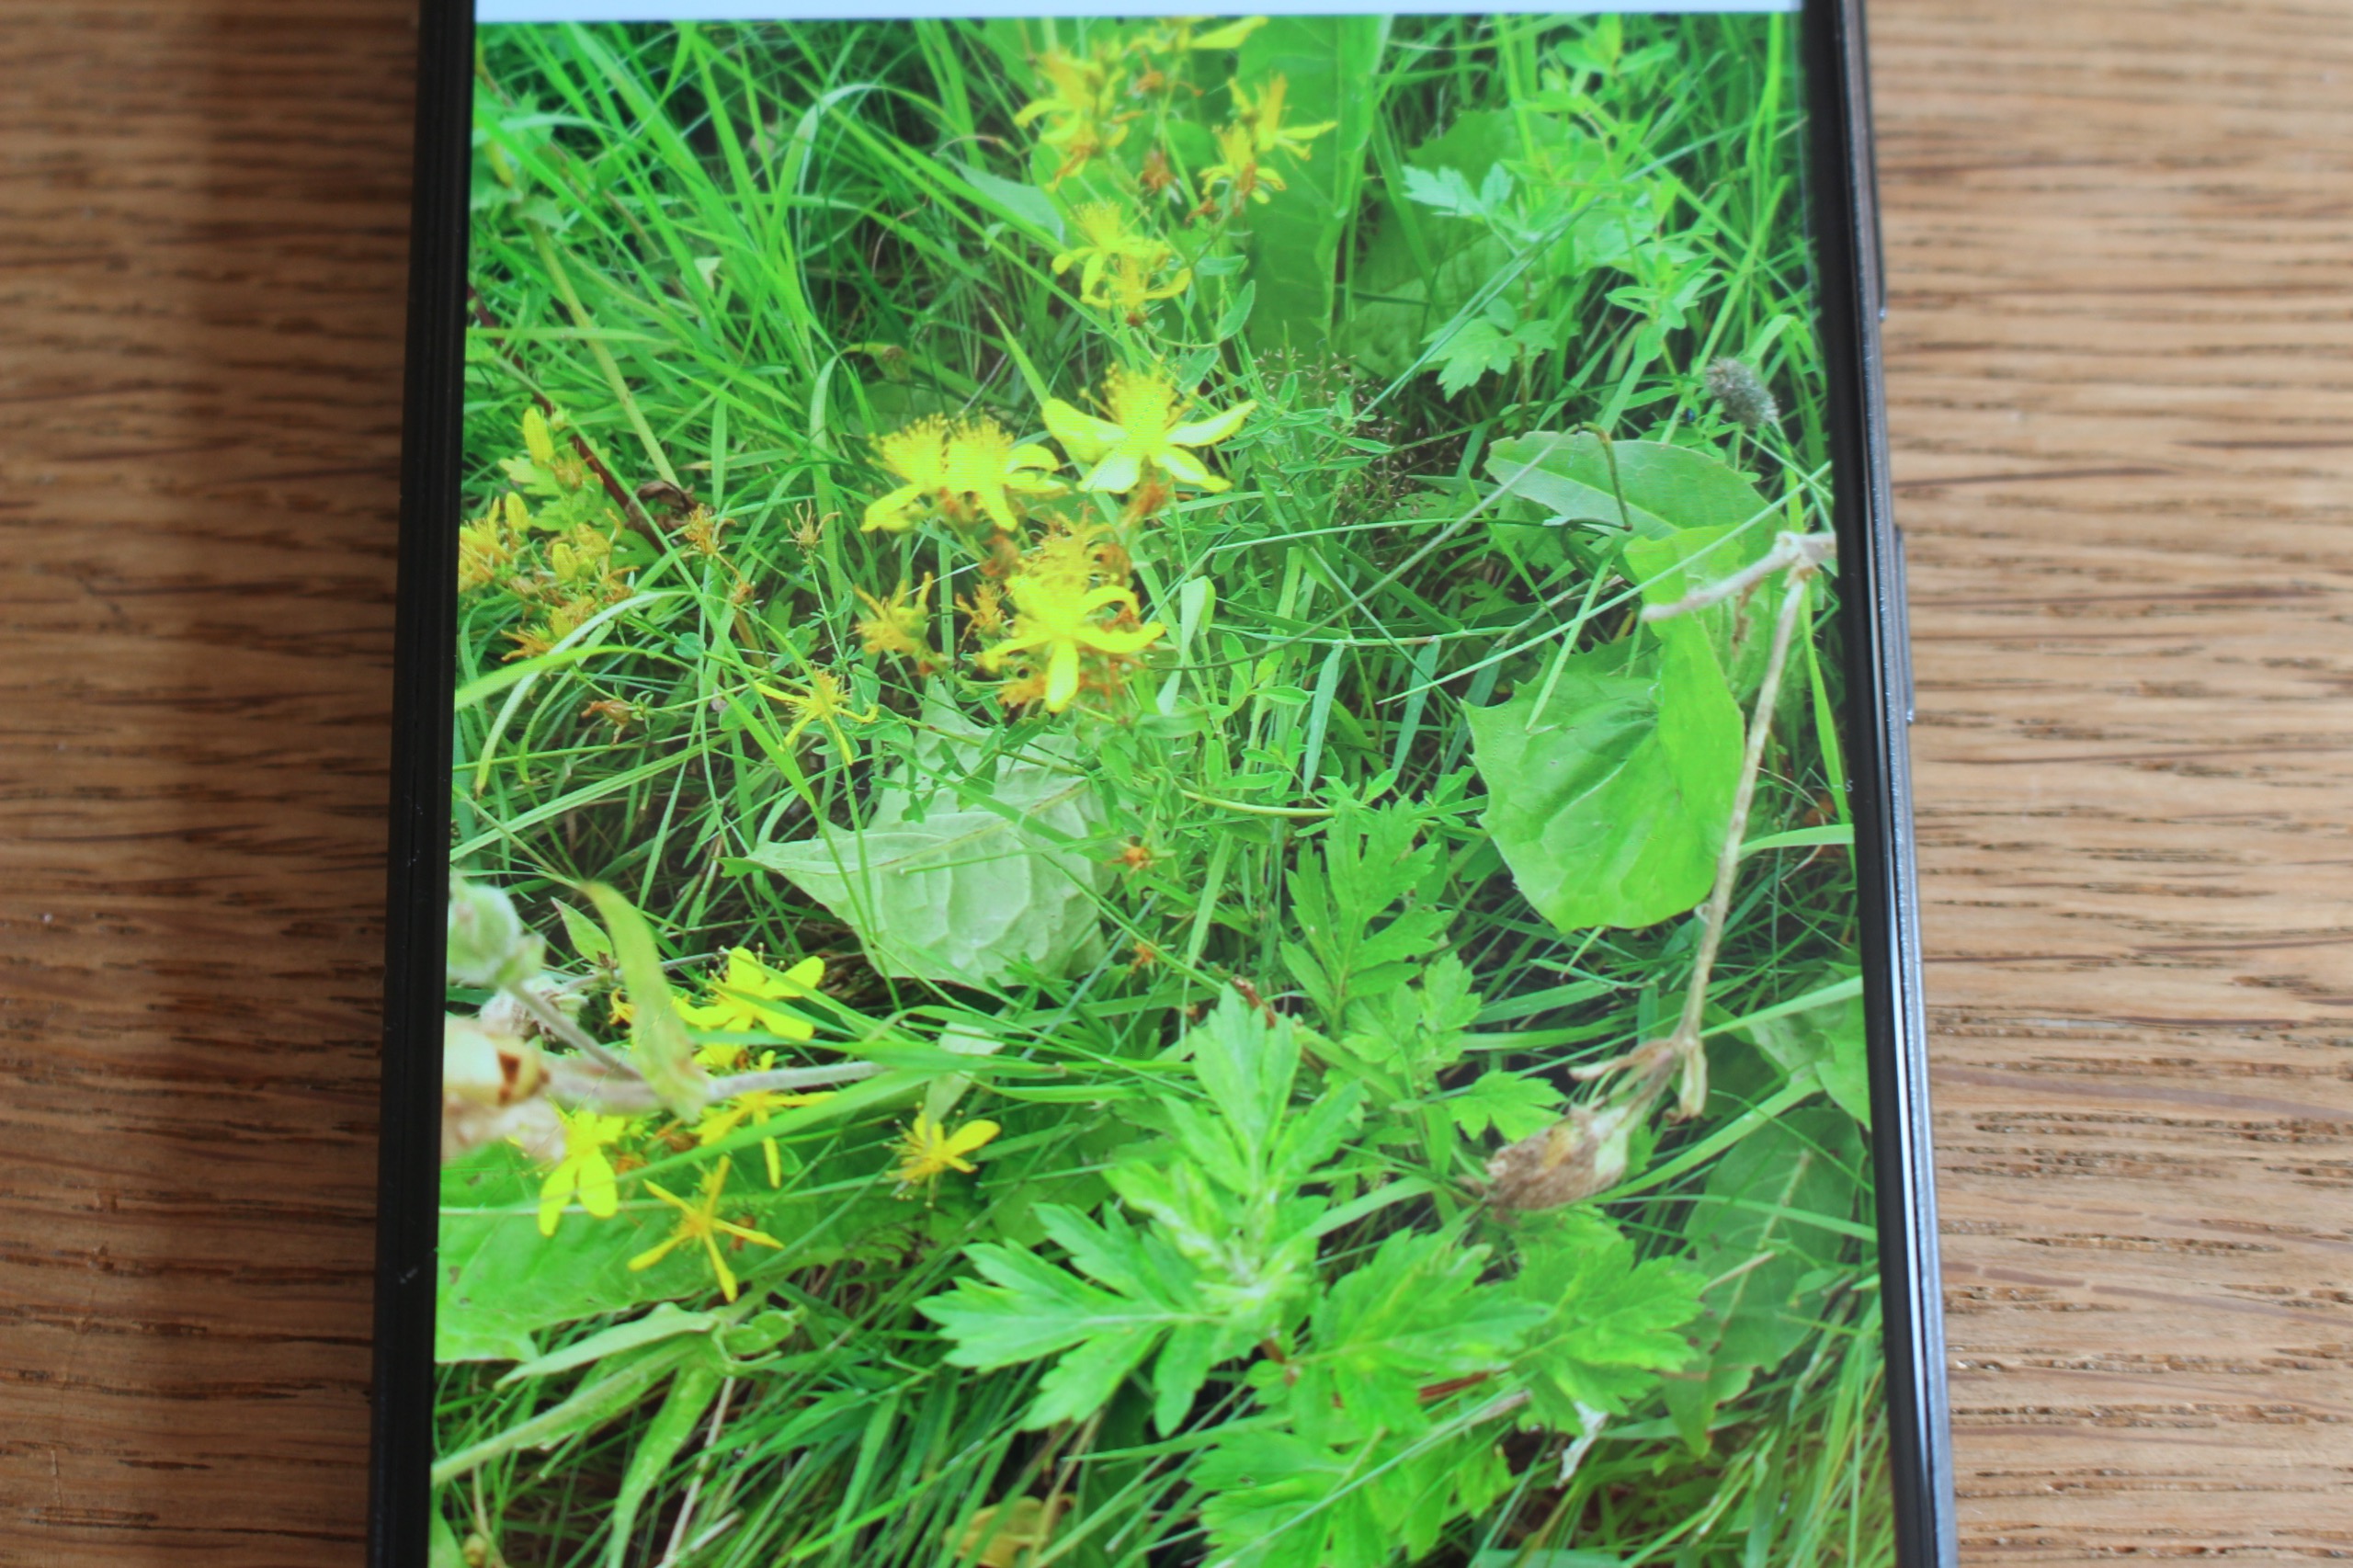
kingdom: Plantae
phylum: Tracheophyta
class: Magnoliopsida
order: Malpighiales
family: Hypericaceae
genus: Hypericum
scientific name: Hypericum perforatum
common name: Prikbladet perikon
